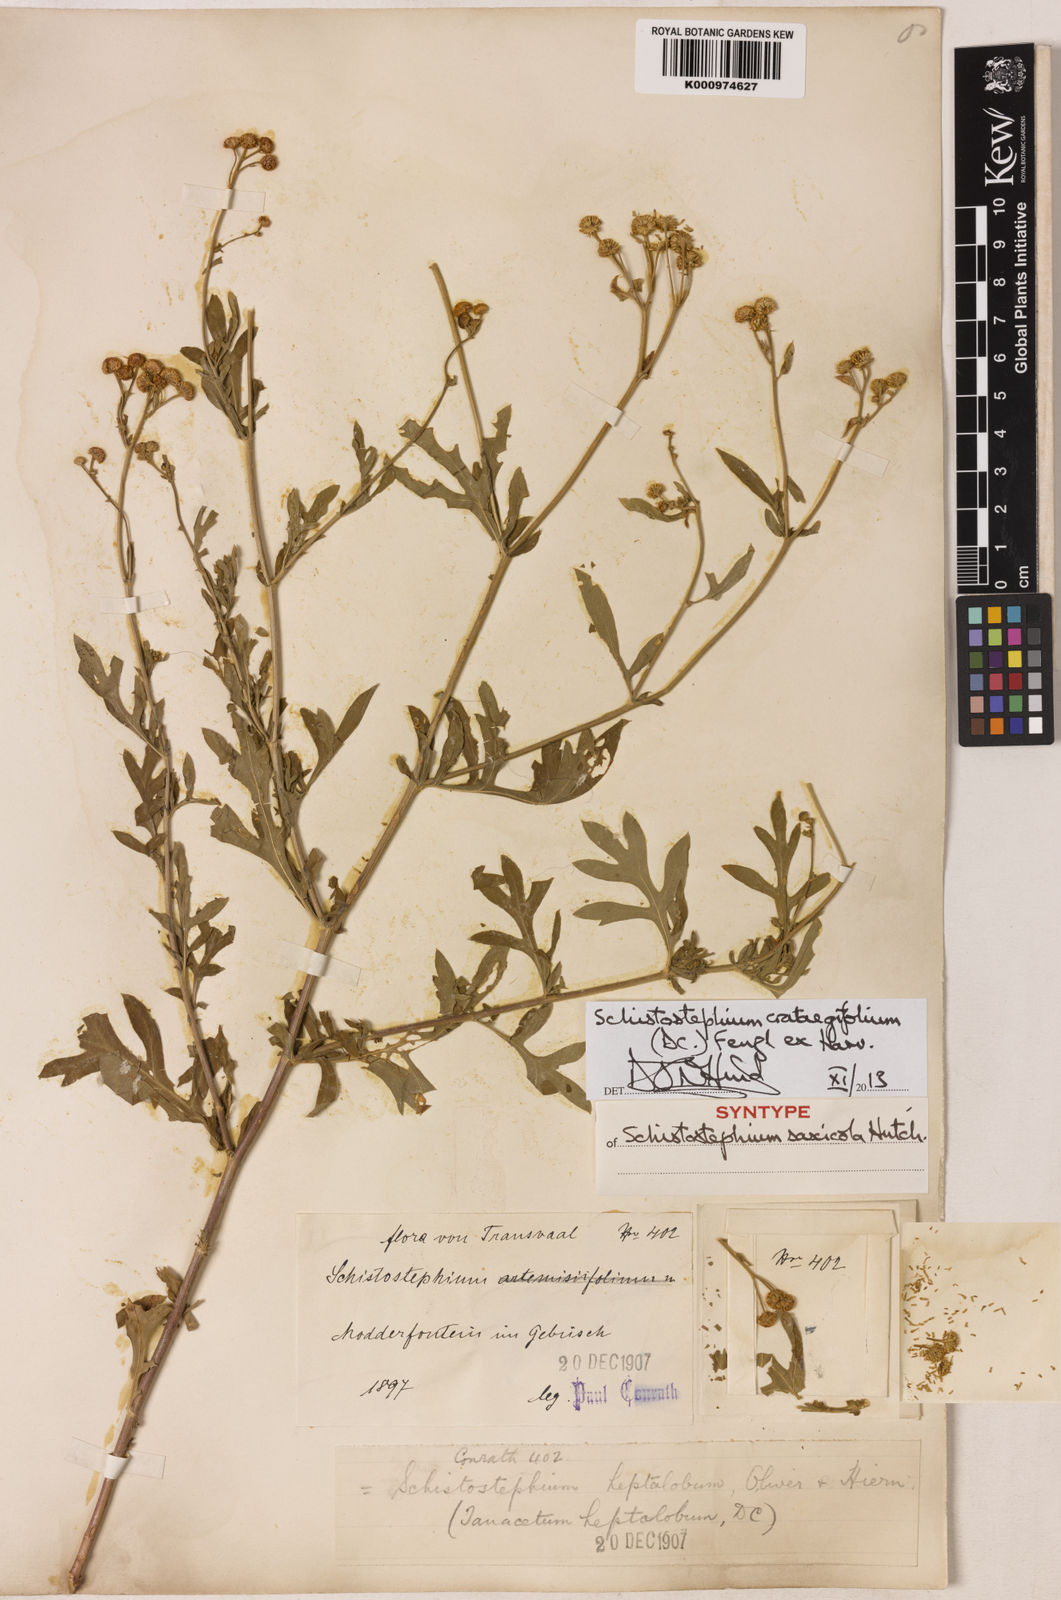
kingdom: Plantae
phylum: Tracheophyta
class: Magnoliopsida
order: Asterales
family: Asteraceae
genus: Schistostephium
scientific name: Schistostephium crataegifolium
